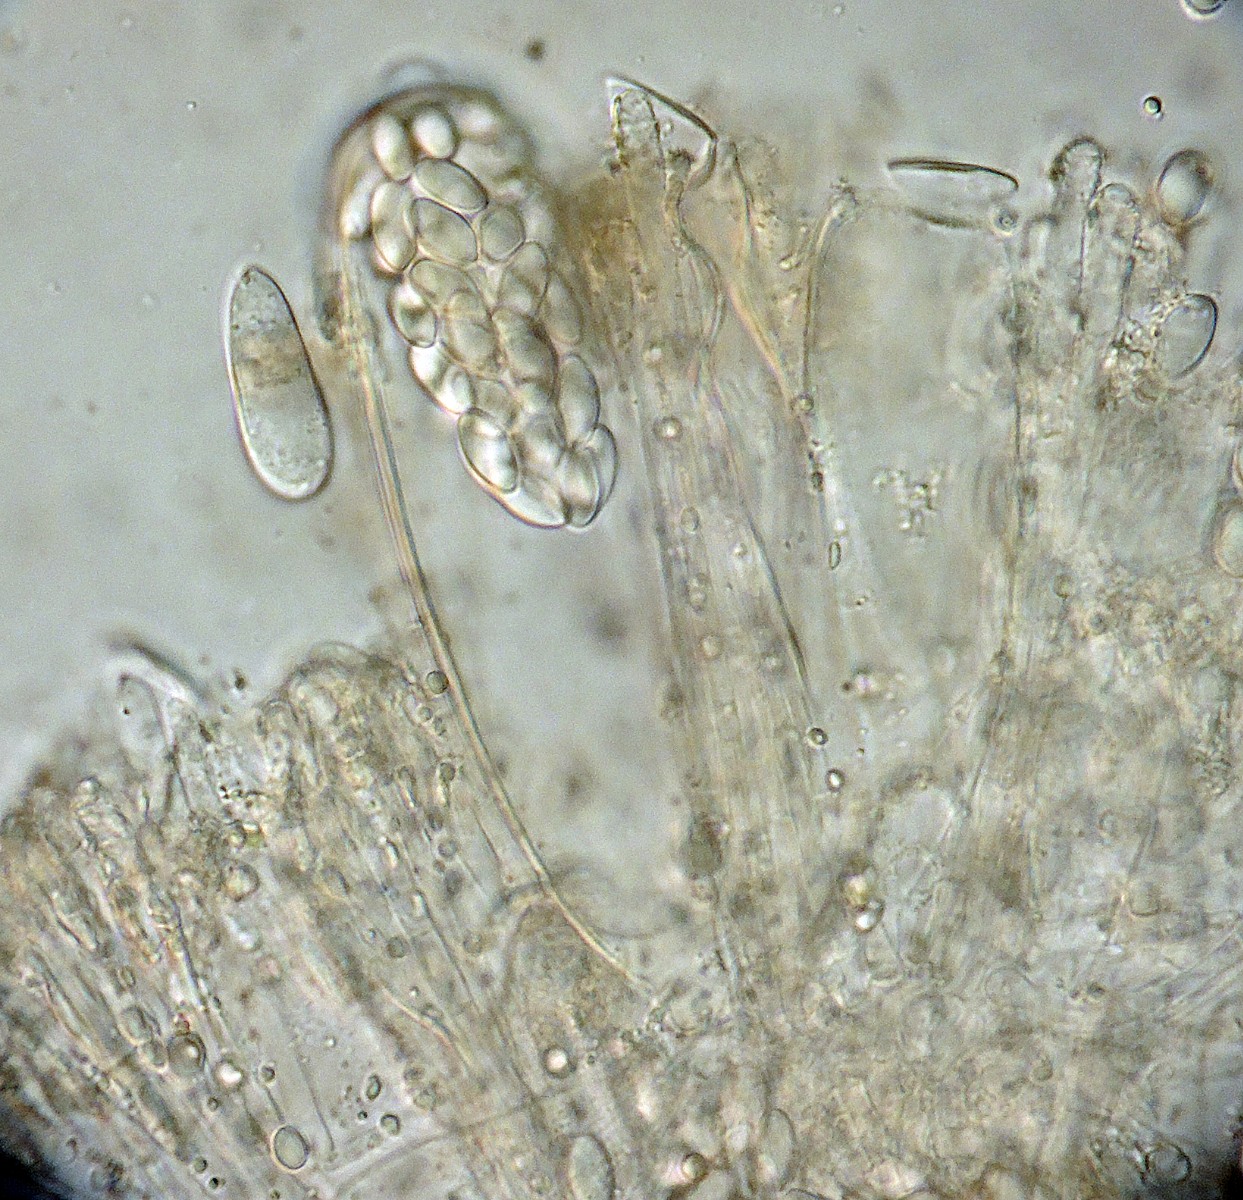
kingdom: Fungi
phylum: Ascomycota
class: Pezizomycetes
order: Pezizales
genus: Coprotus
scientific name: Coprotus albidus
